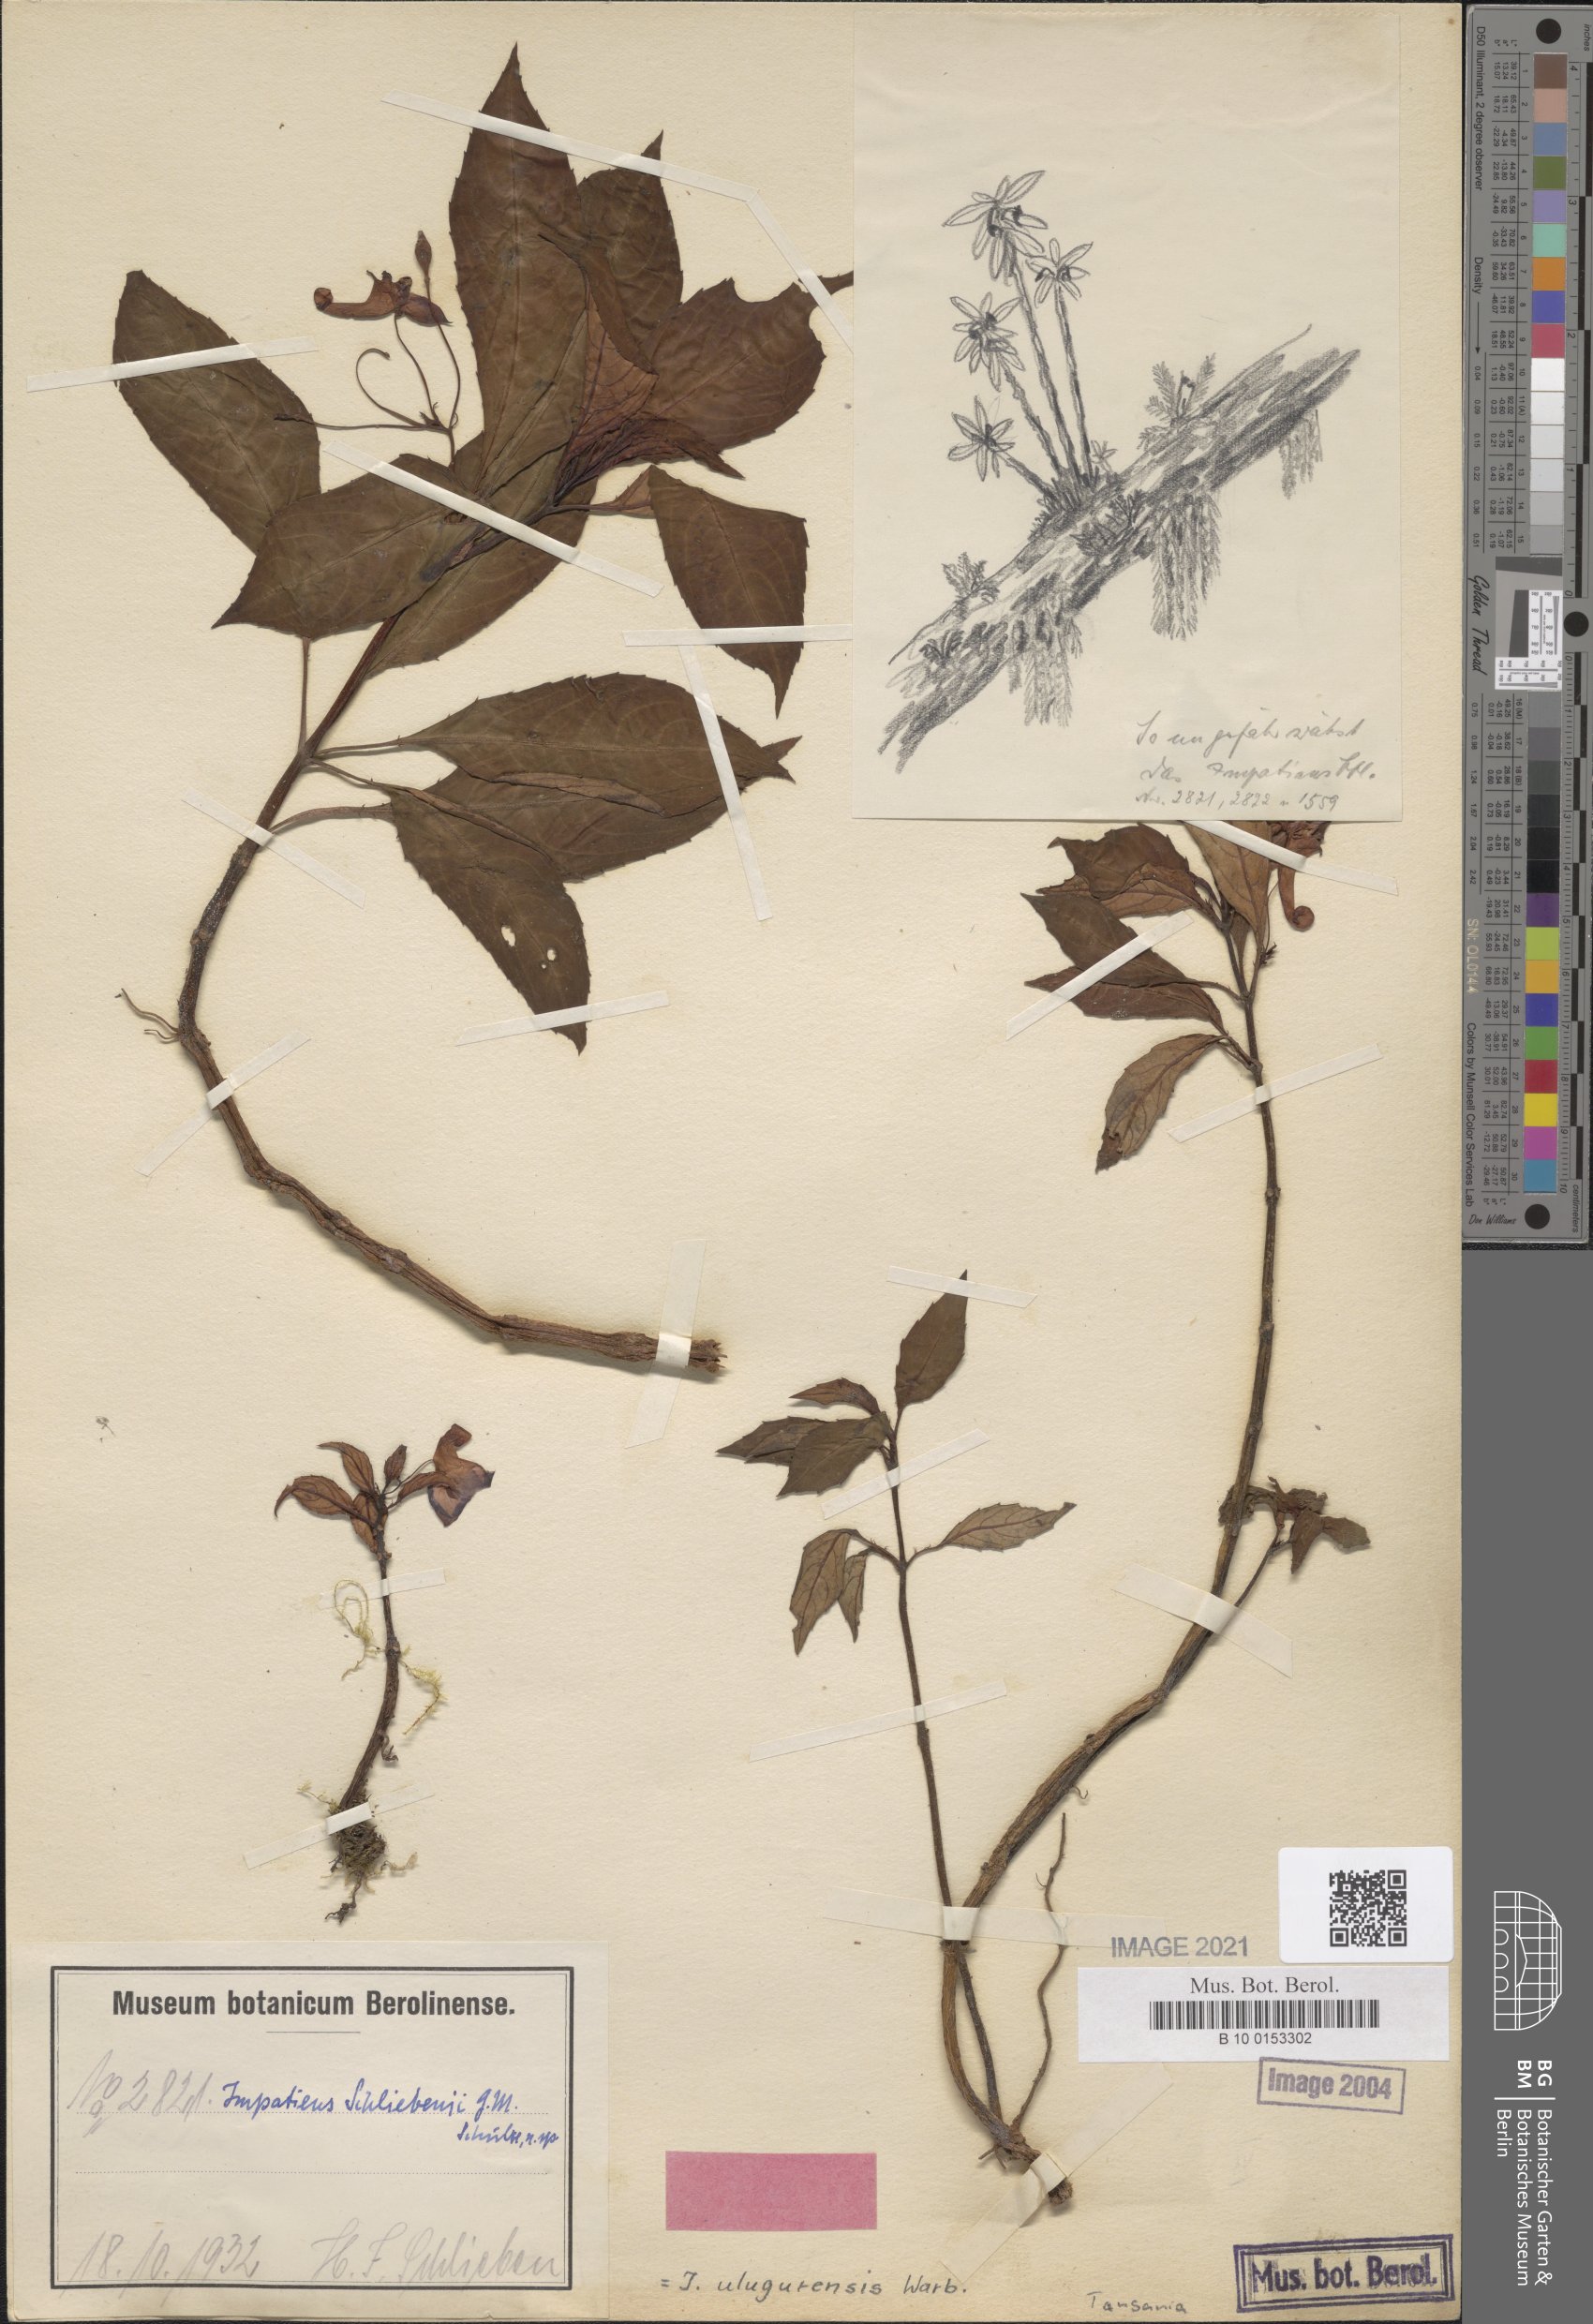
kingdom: Plantae
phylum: Tracheophyta
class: Magnoliopsida
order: Ericales
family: Balsaminaceae
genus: Impatiens
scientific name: Impatiens ulugurensis
